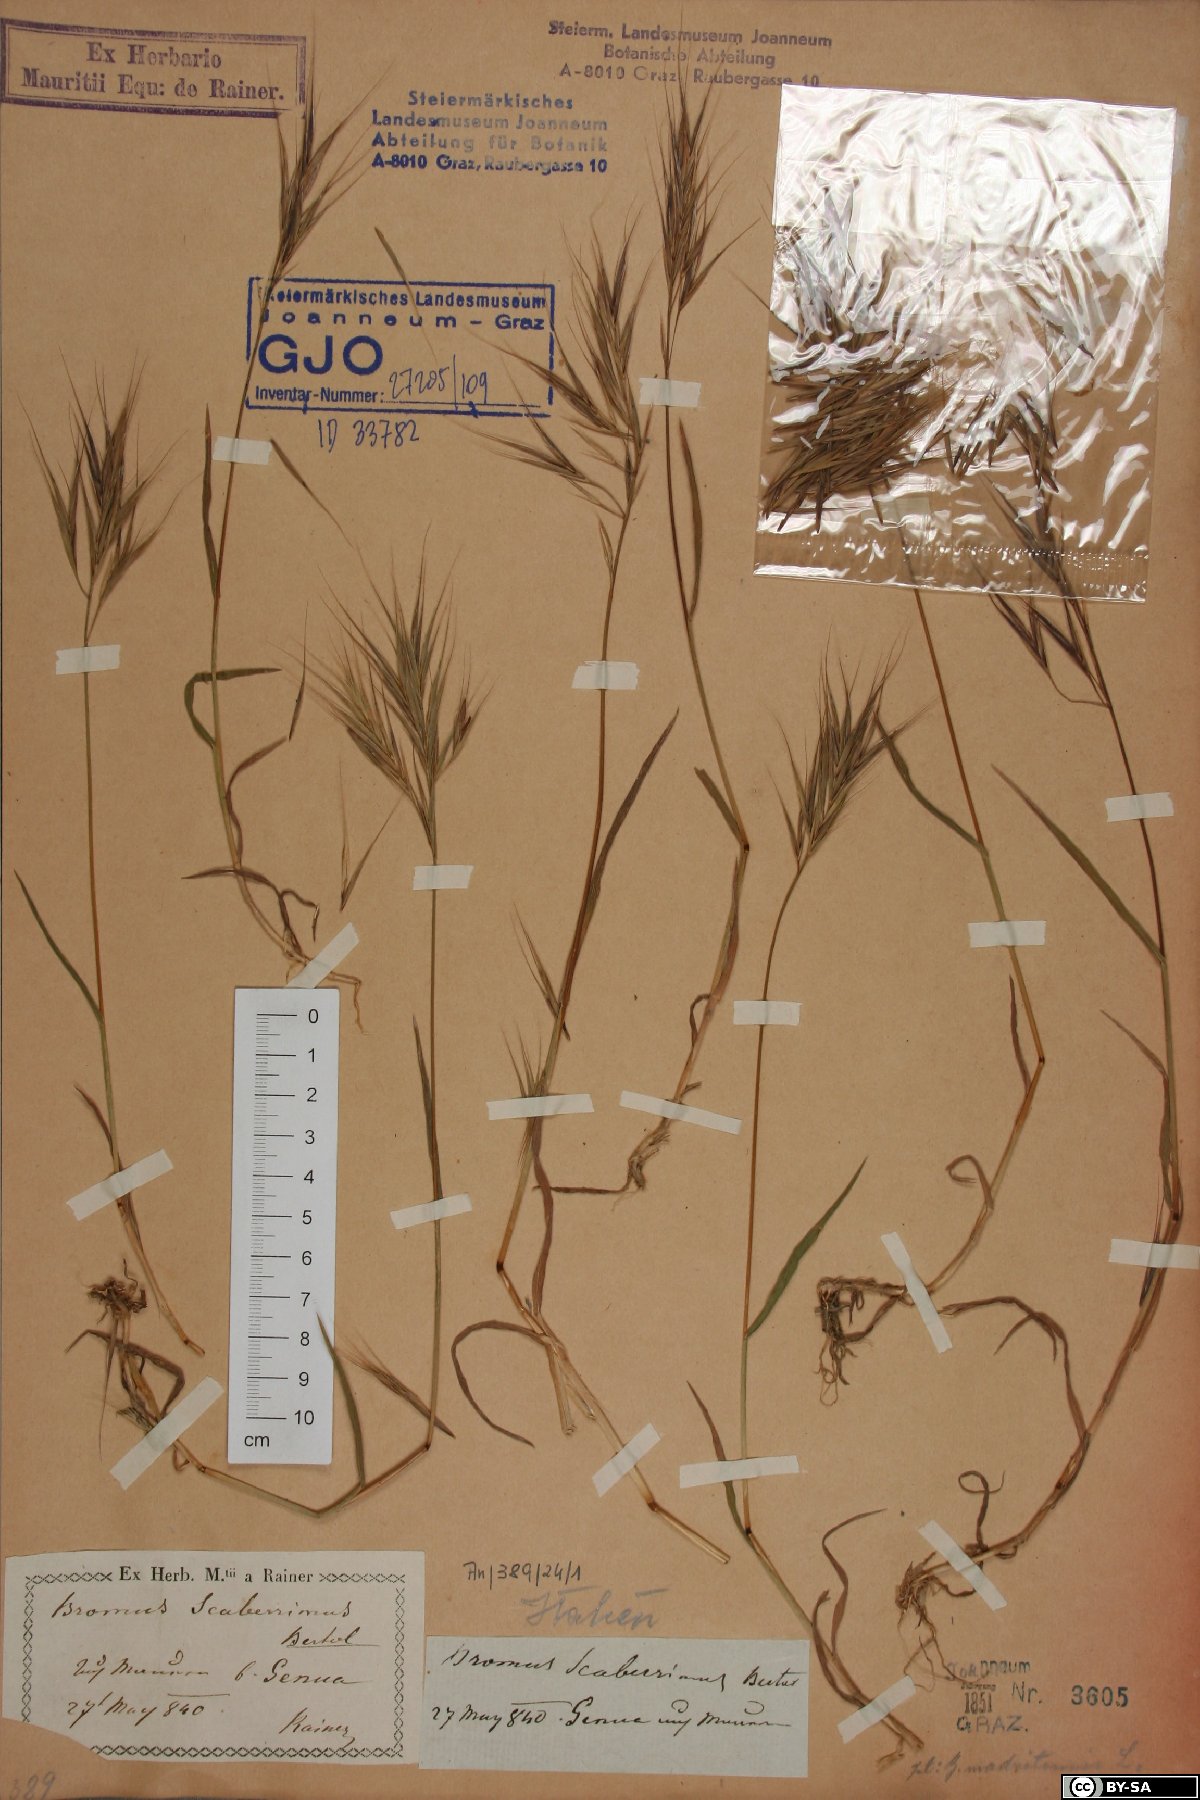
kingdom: Plantae
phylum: Tracheophyta
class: Liliopsida
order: Poales
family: Poaceae
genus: Bromus
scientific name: Bromus sterilis
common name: Poverty brome
